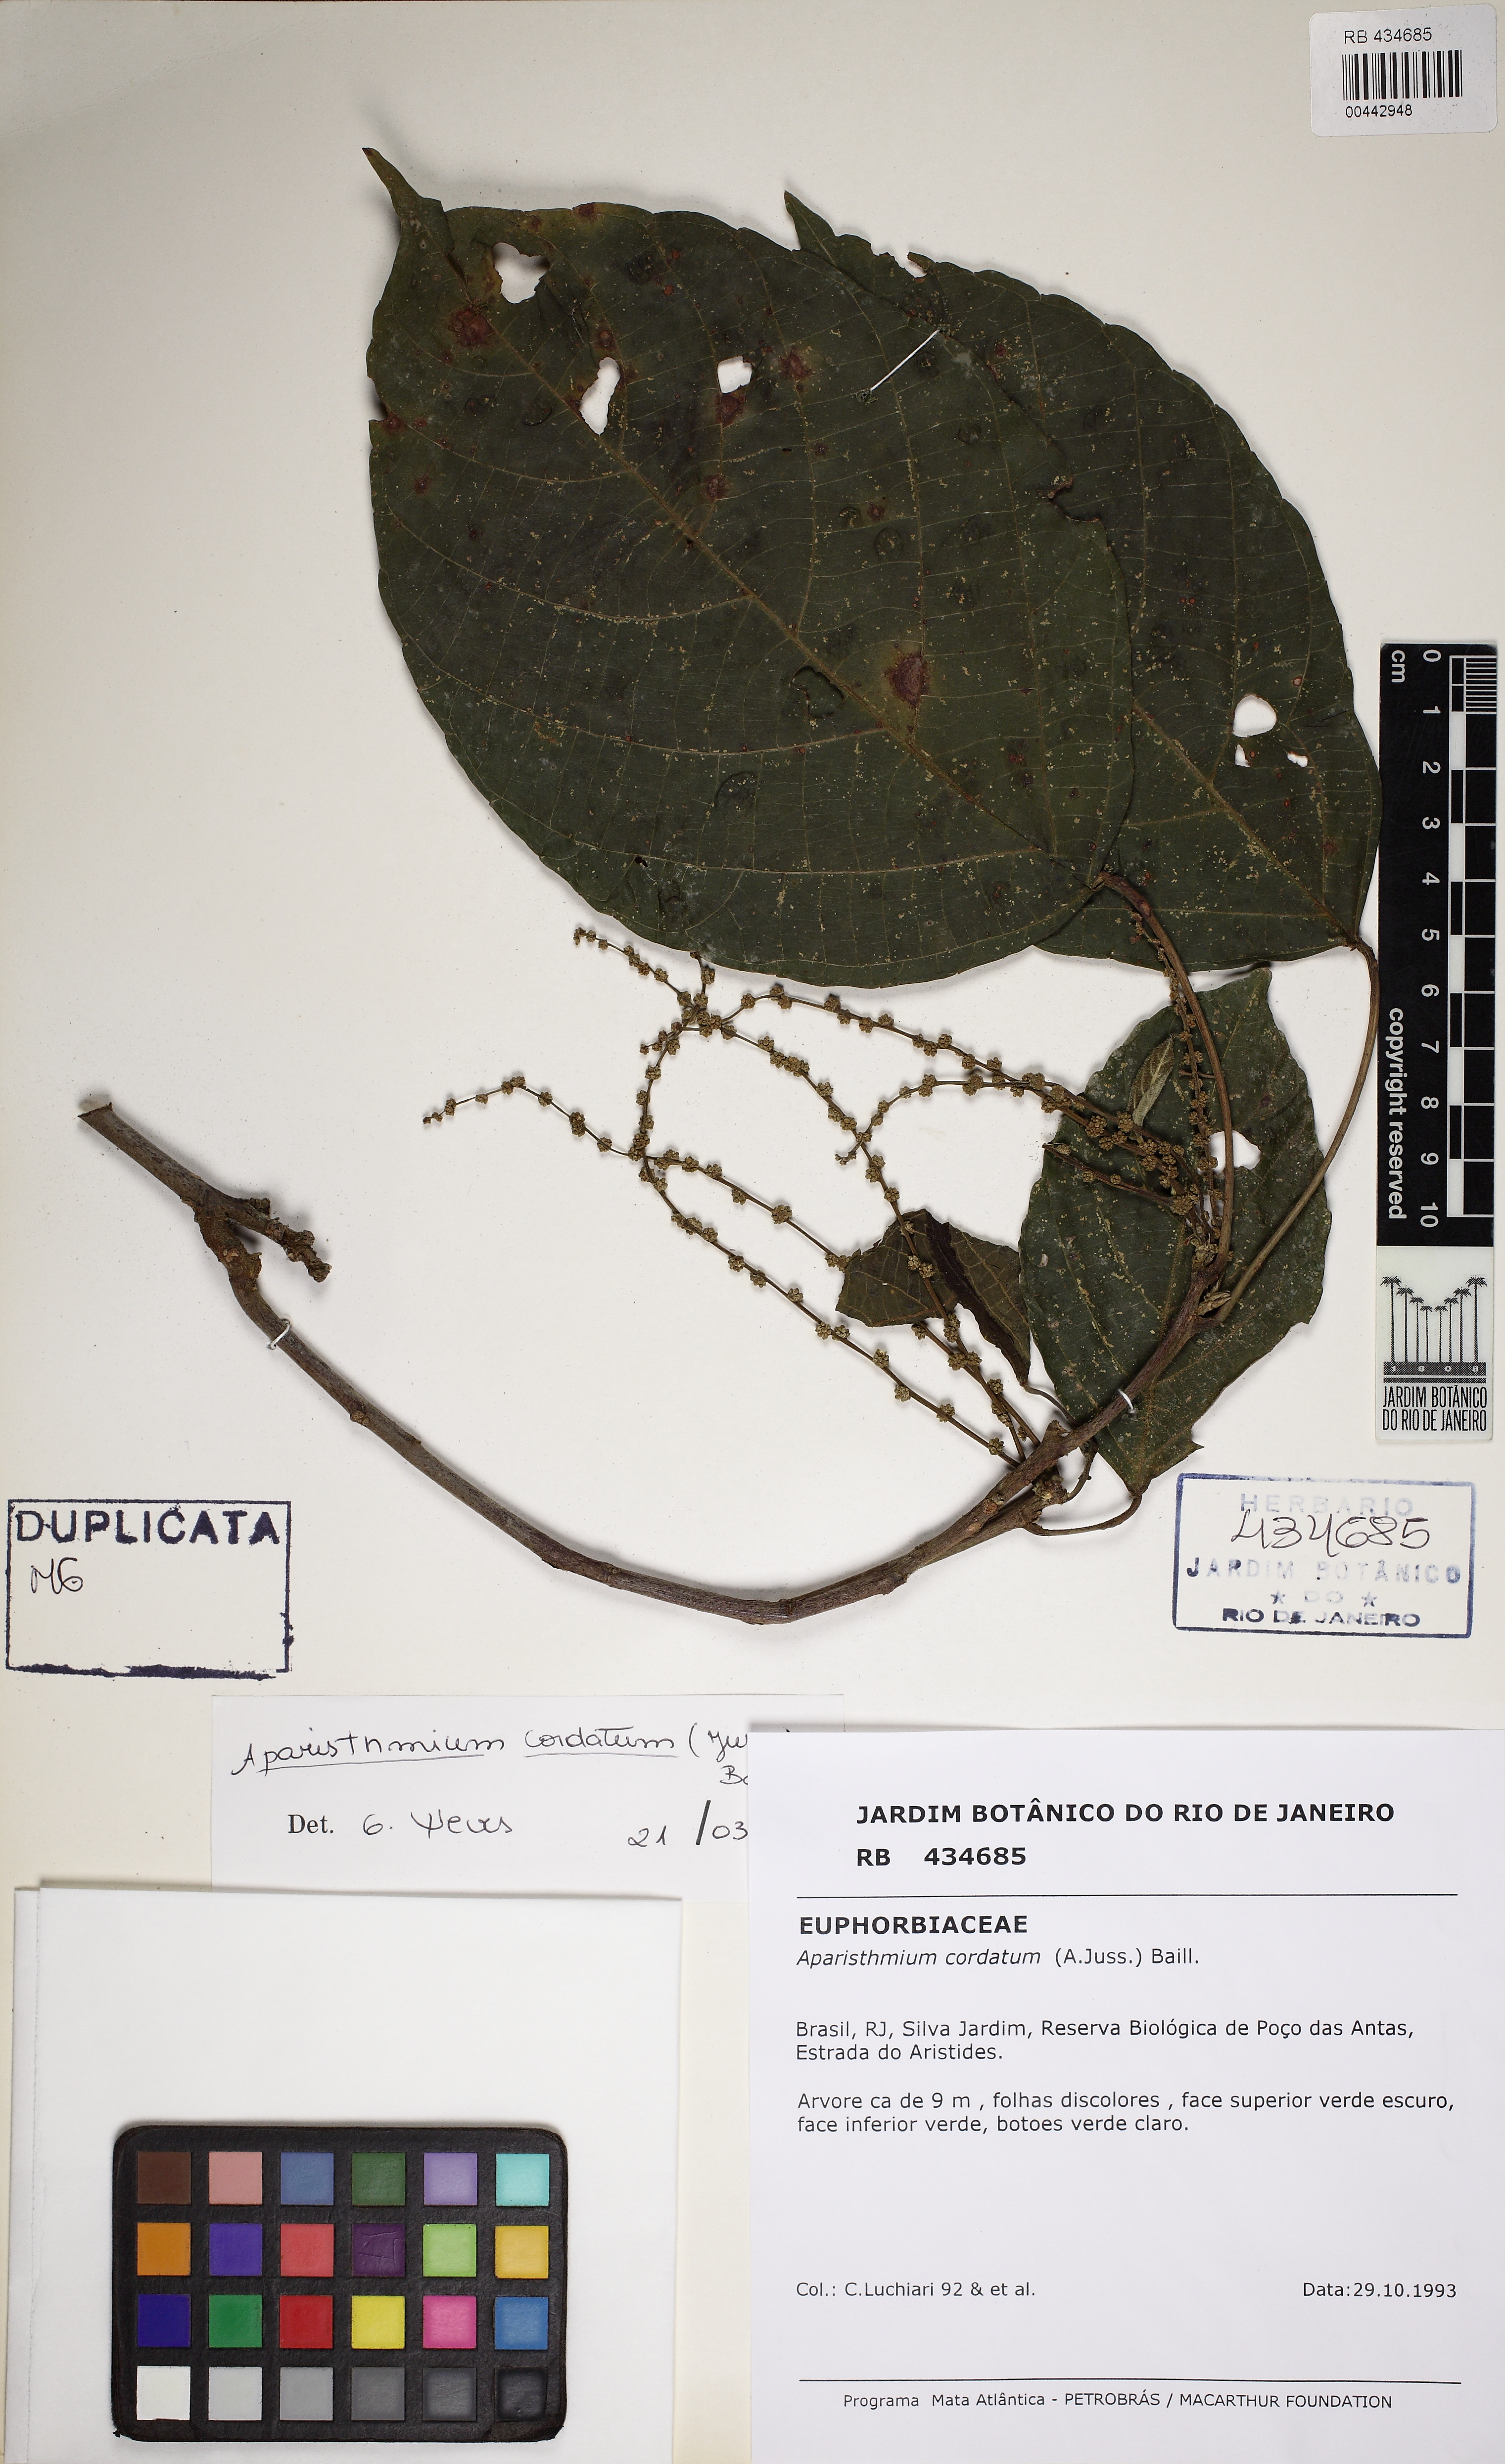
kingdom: Plantae
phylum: Tracheophyta
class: Magnoliopsida
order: Malpighiales
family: Euphorbiaceae
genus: Aparisthmium
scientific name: Aparisthmium cordatum
